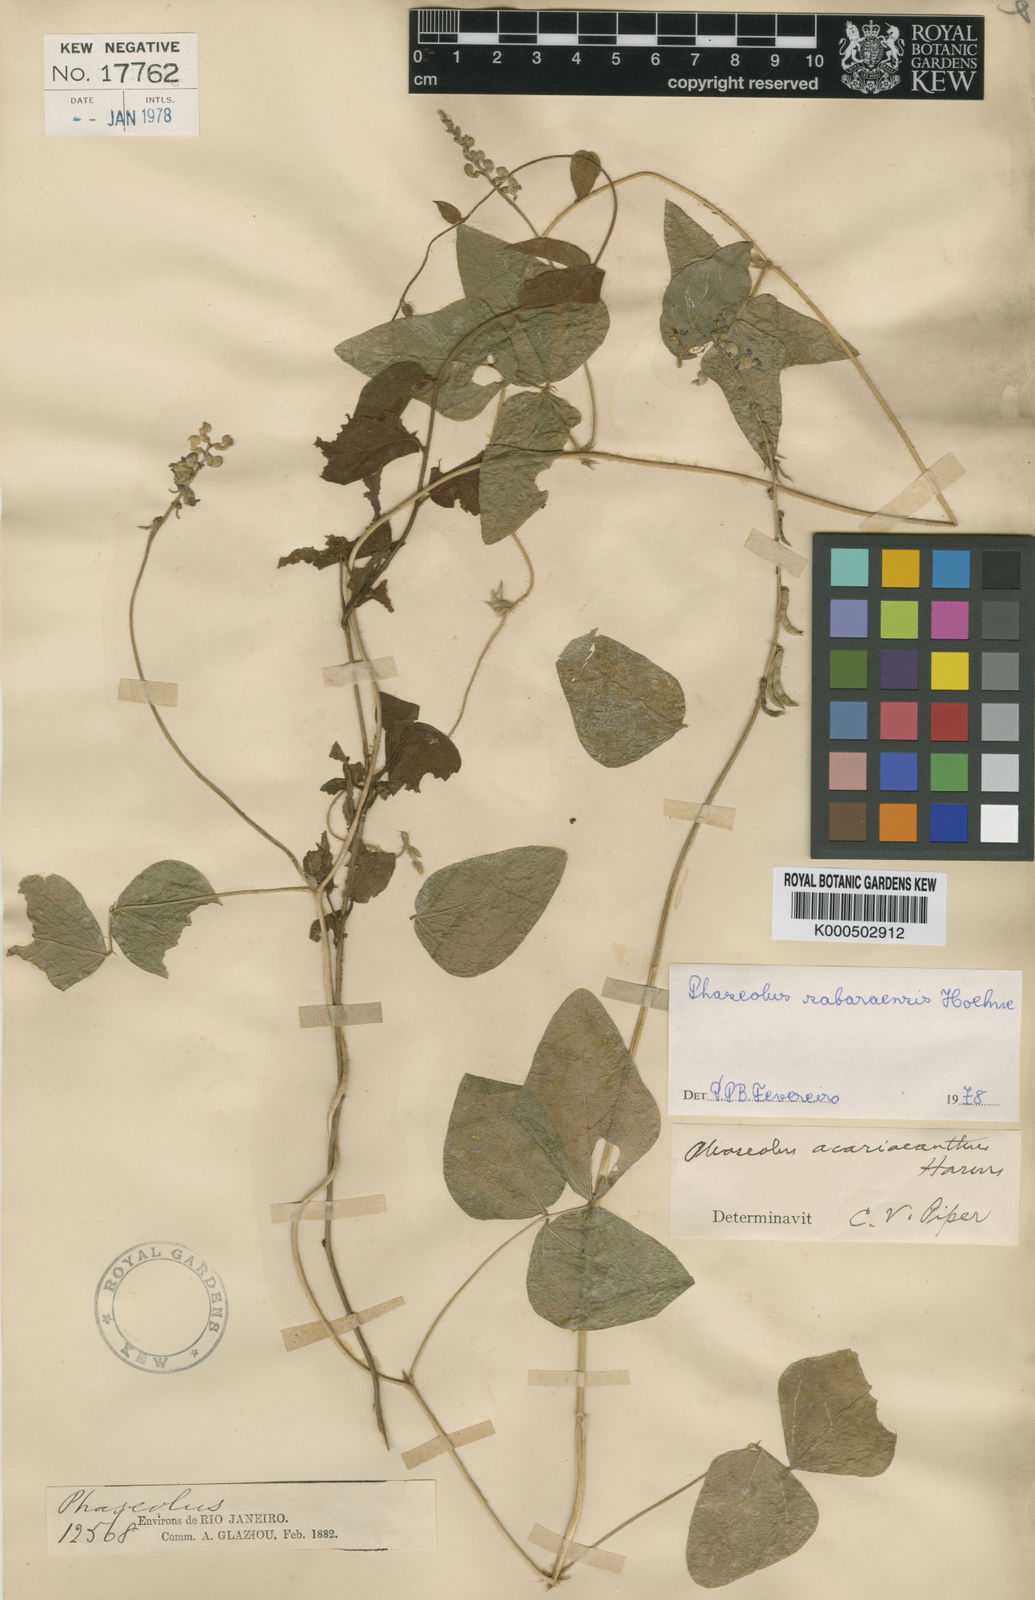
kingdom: Plantae
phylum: Tracheophyta
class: Magnoliopsida
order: Fabales
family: Fabaceae
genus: Macroptilium
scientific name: Macroptilium
